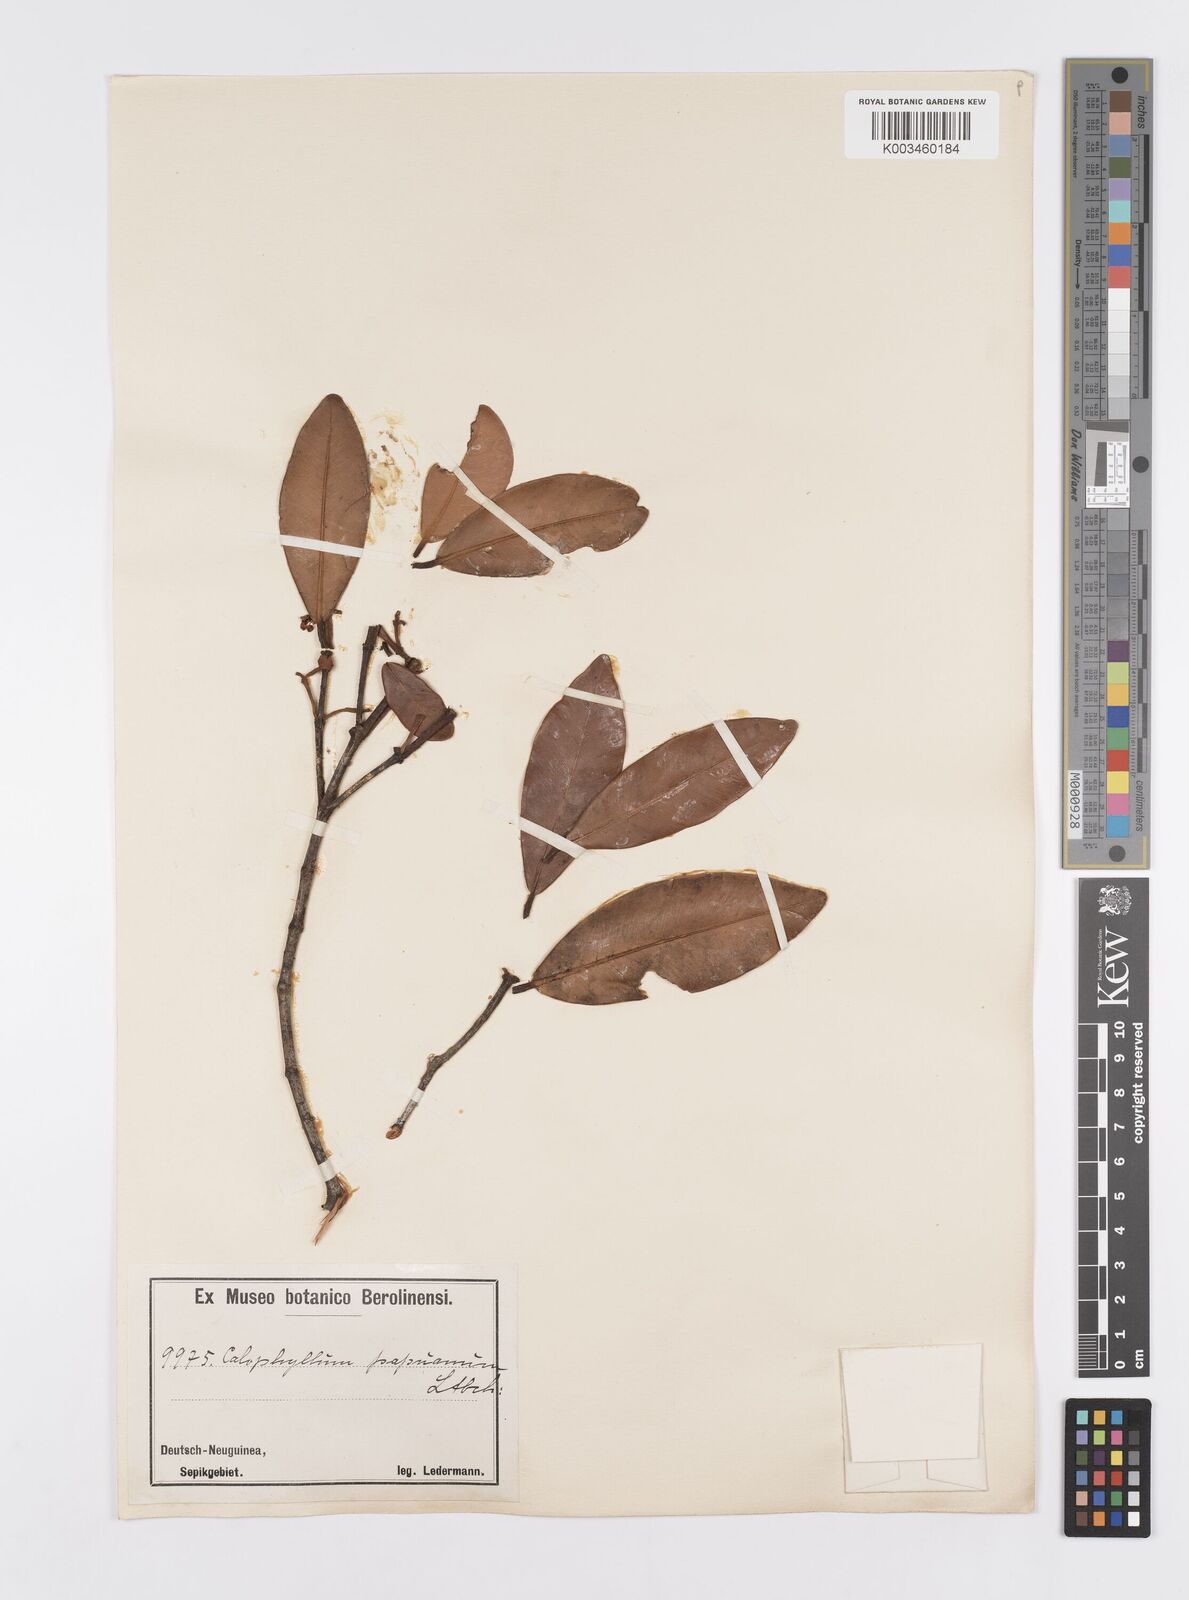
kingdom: Plantae
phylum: Tracheophyta
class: Magnoliopsida
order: Malpighiales
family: Calophyllaceae
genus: Calophyllum
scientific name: Calophyllum papuanum
